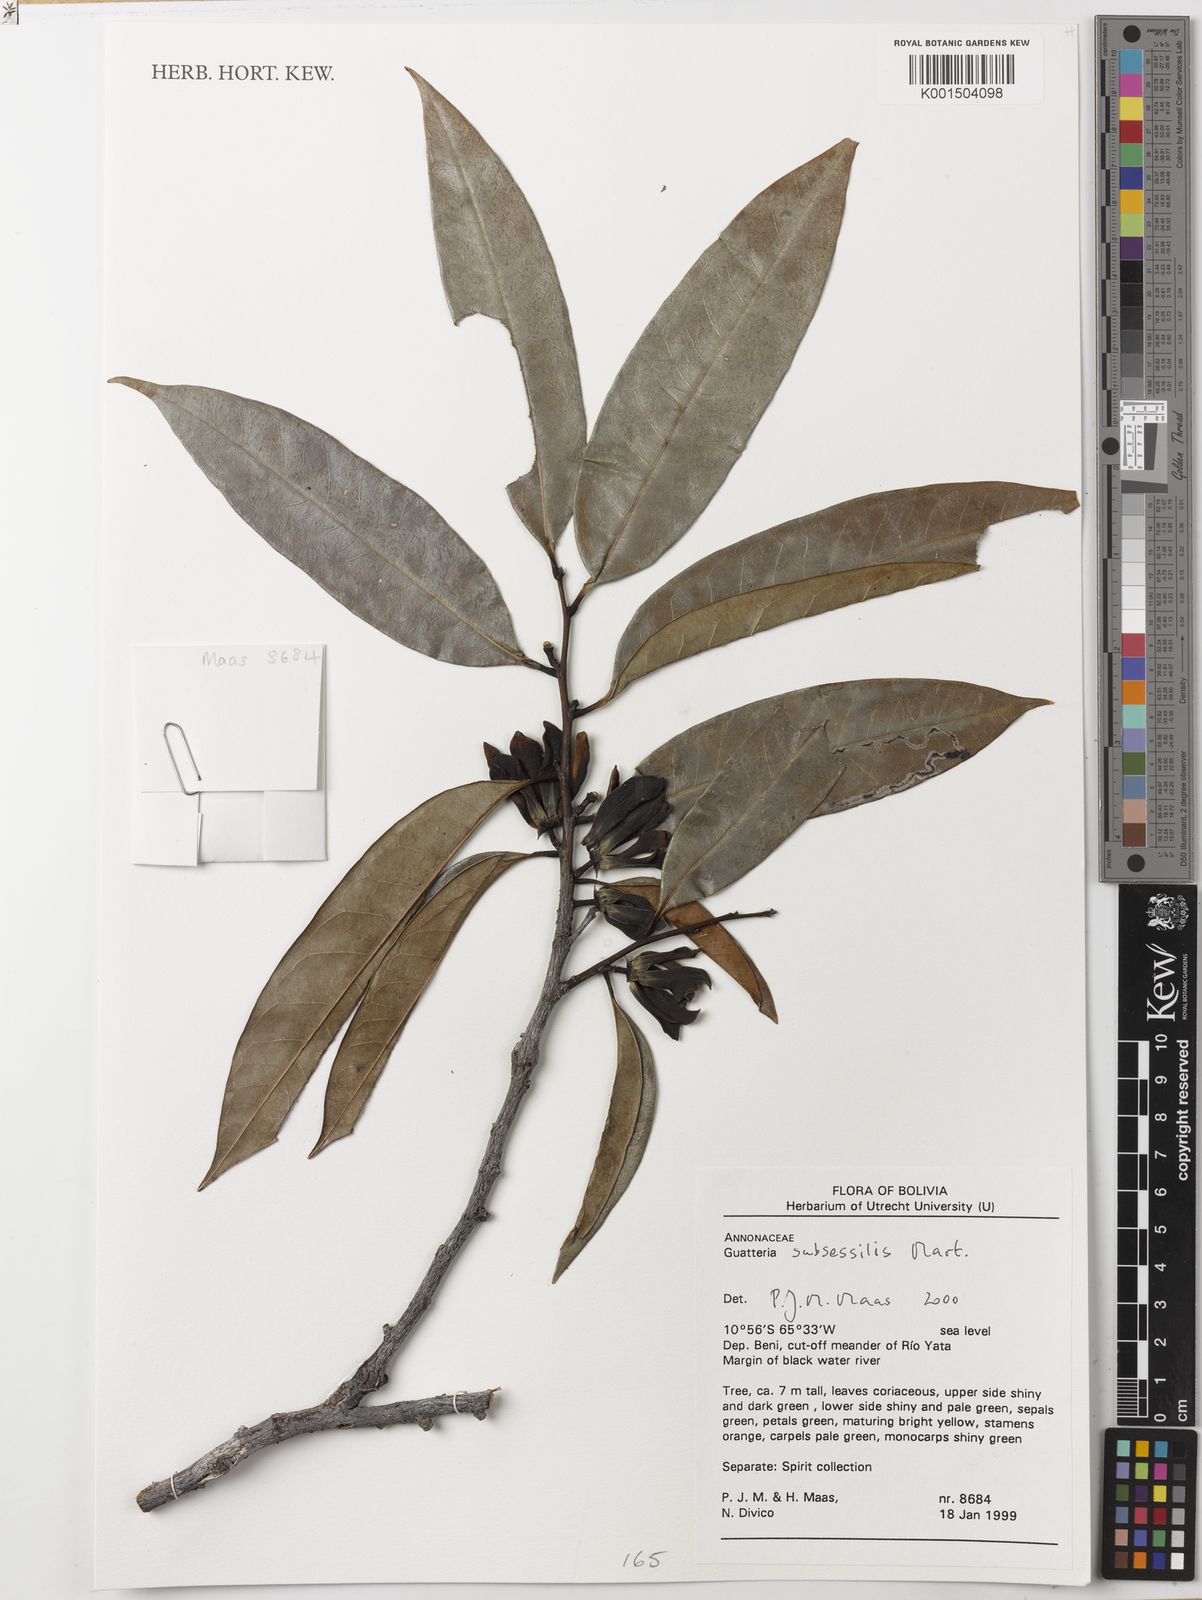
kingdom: Plantae
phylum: Tracheophyta
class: Magnoliopsida
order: Magnoliales
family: Annonaceae
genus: Guatteria
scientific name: Guatteria subsessilis
